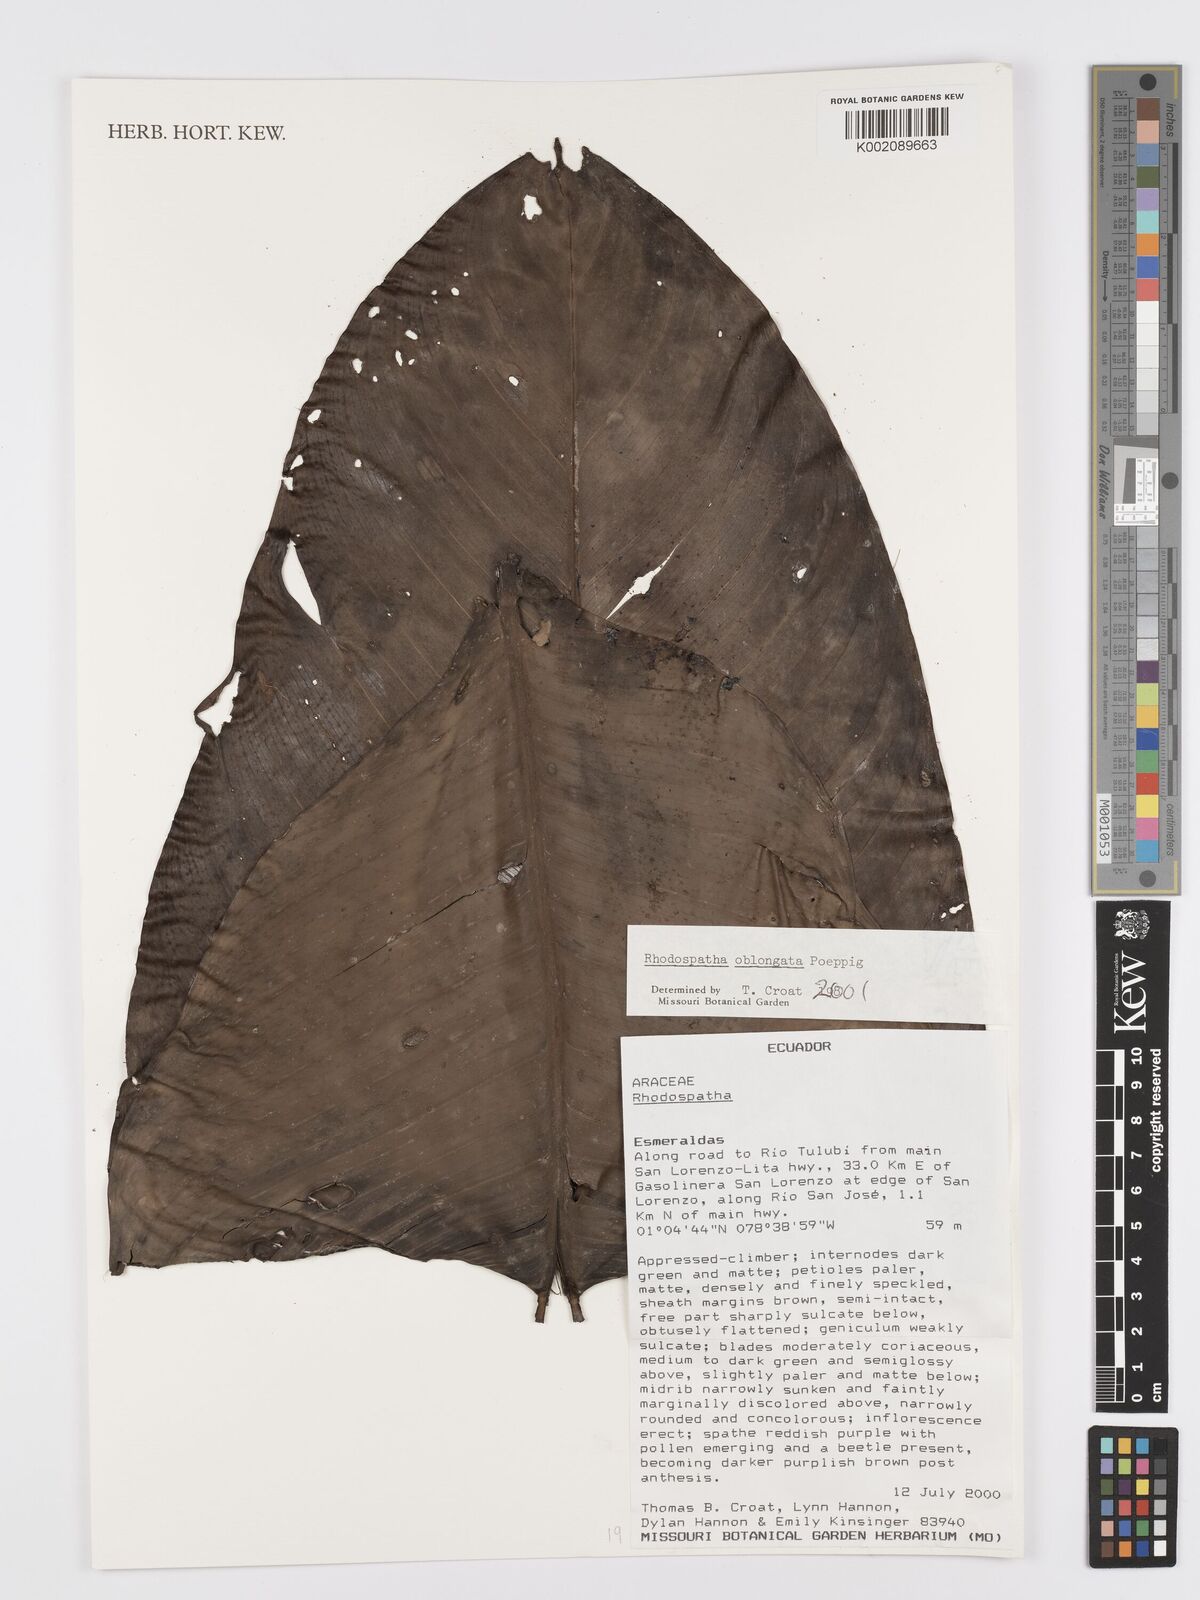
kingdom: Plantae
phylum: Tracheophyta
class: Liliopsida
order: Alismatales
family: Araceae
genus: Rhodospatha
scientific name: Rhodospatha oblongata
